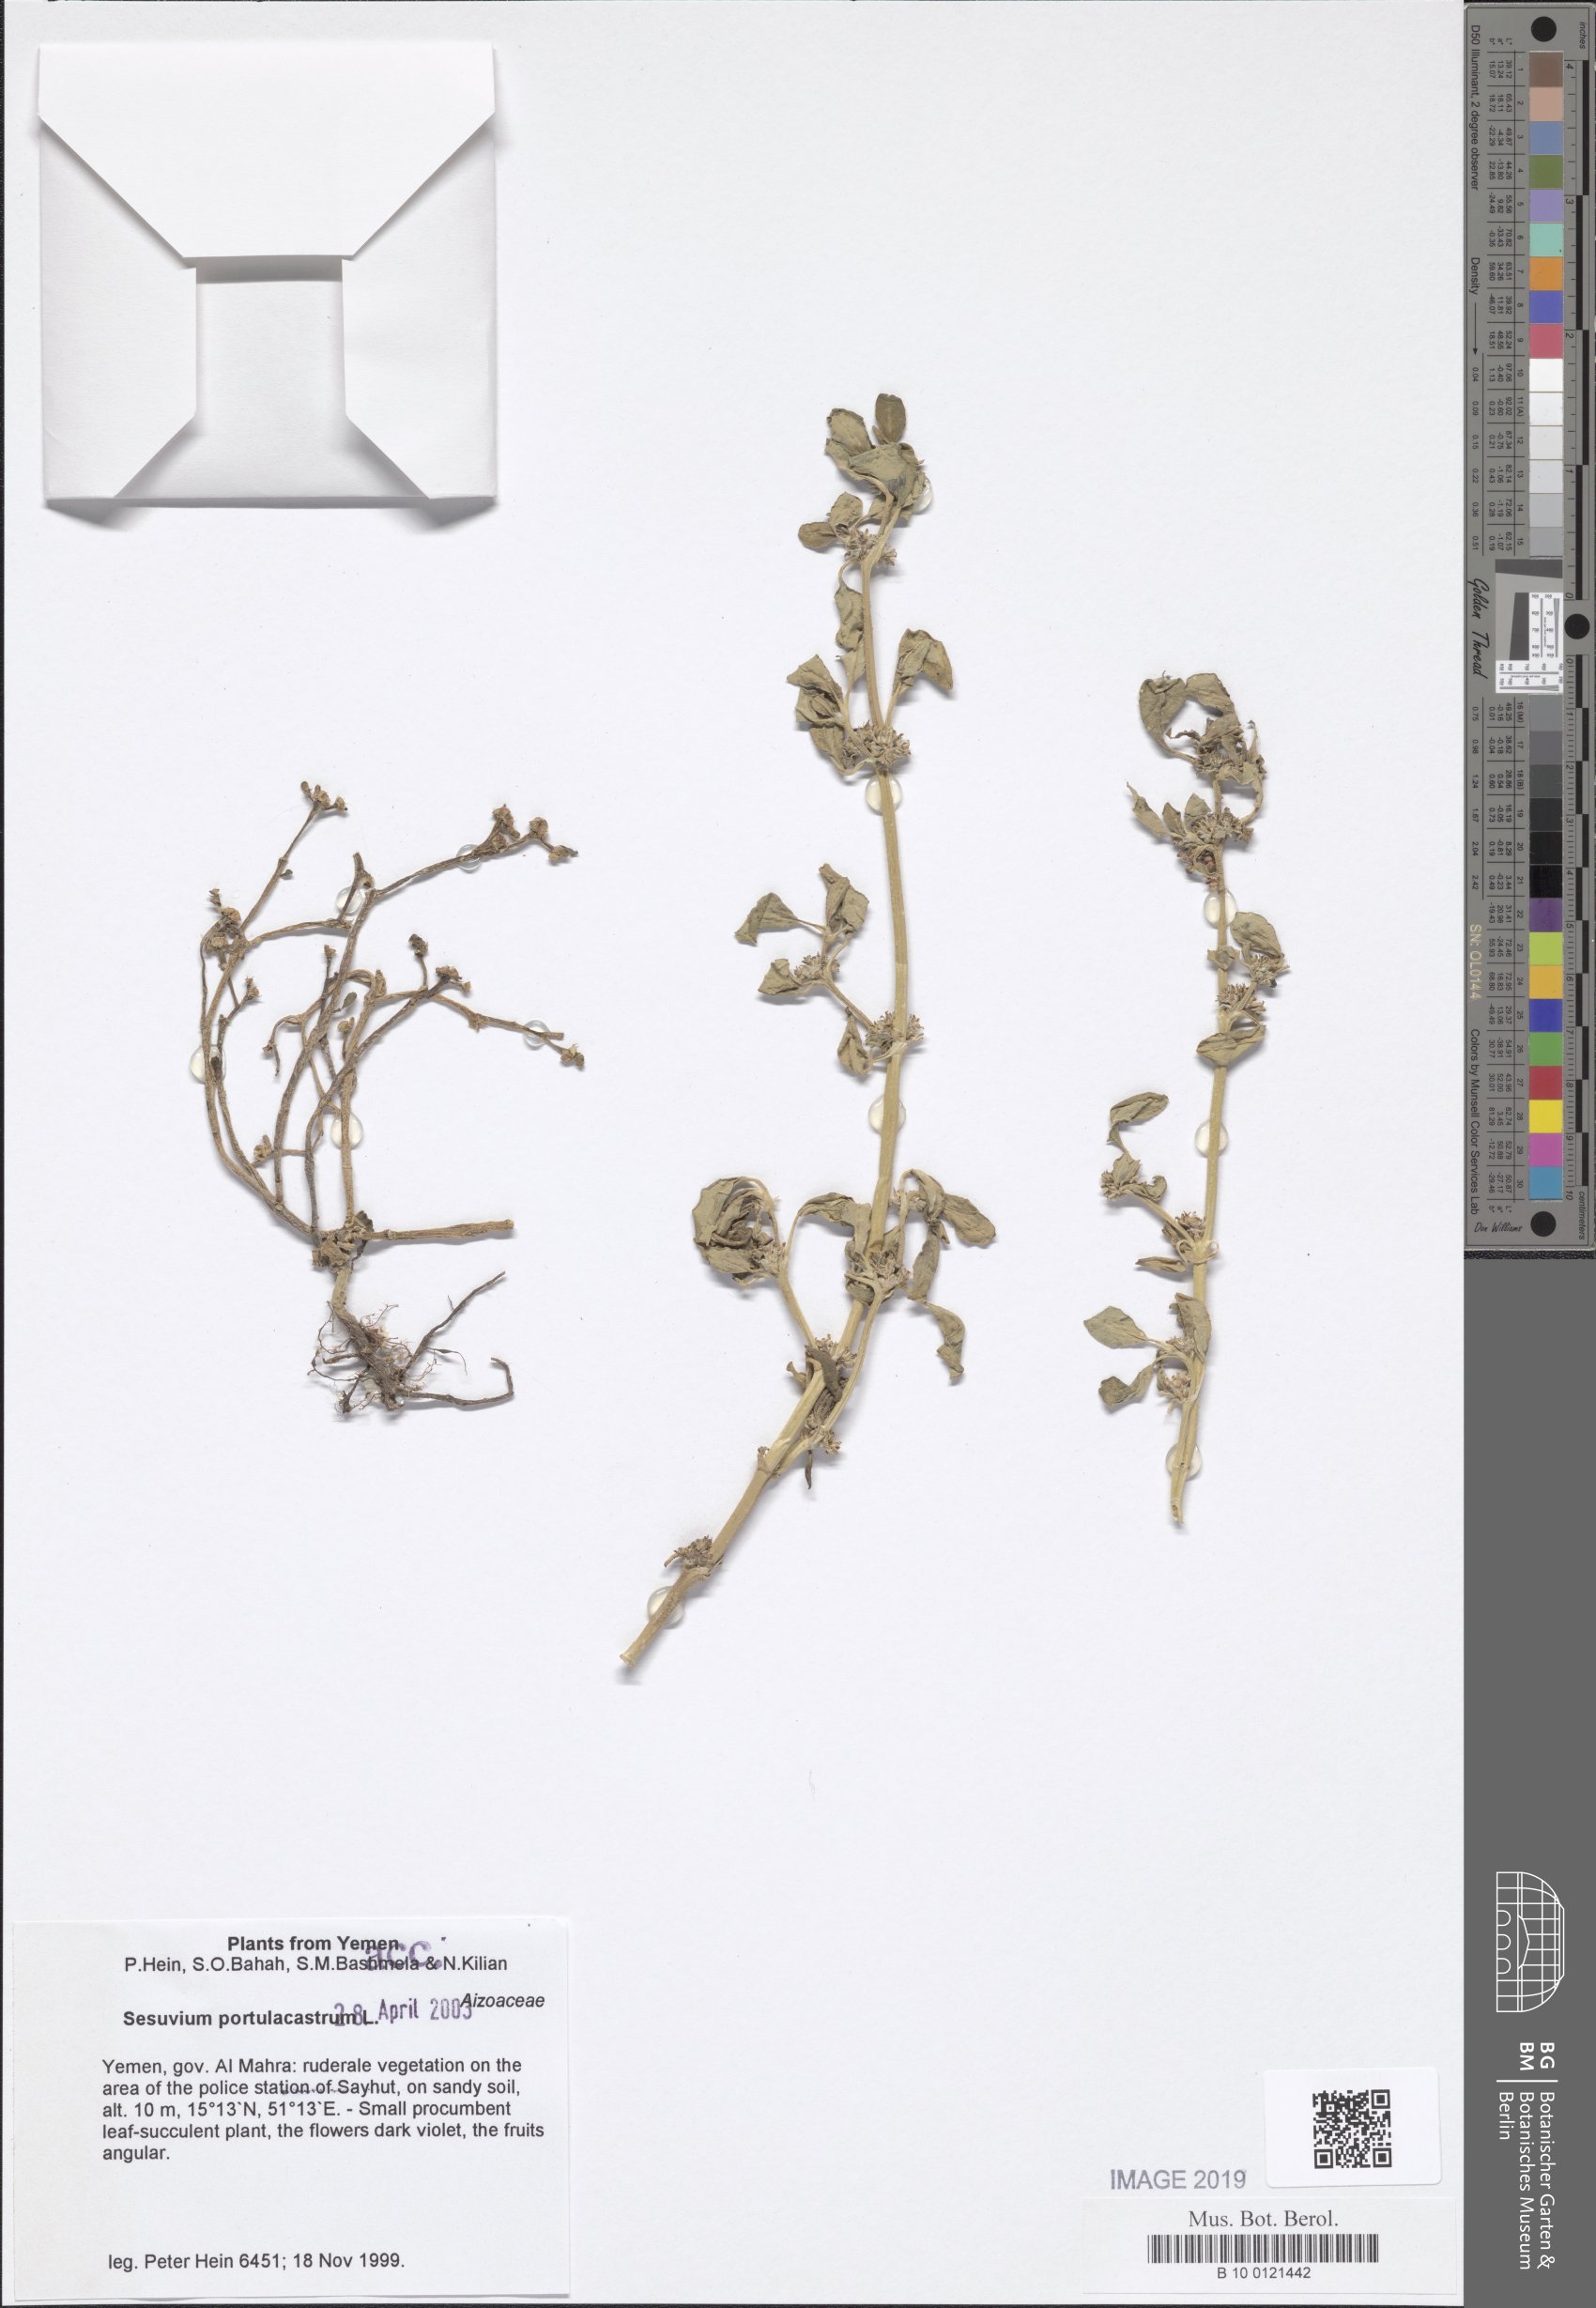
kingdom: Plantae
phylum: Tracheophyta
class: Magnoliopsida
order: Caryophyllales
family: Aizoaceae
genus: Sesuvium
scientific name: Sesuvium portulacastrum
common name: Sea-purslane
